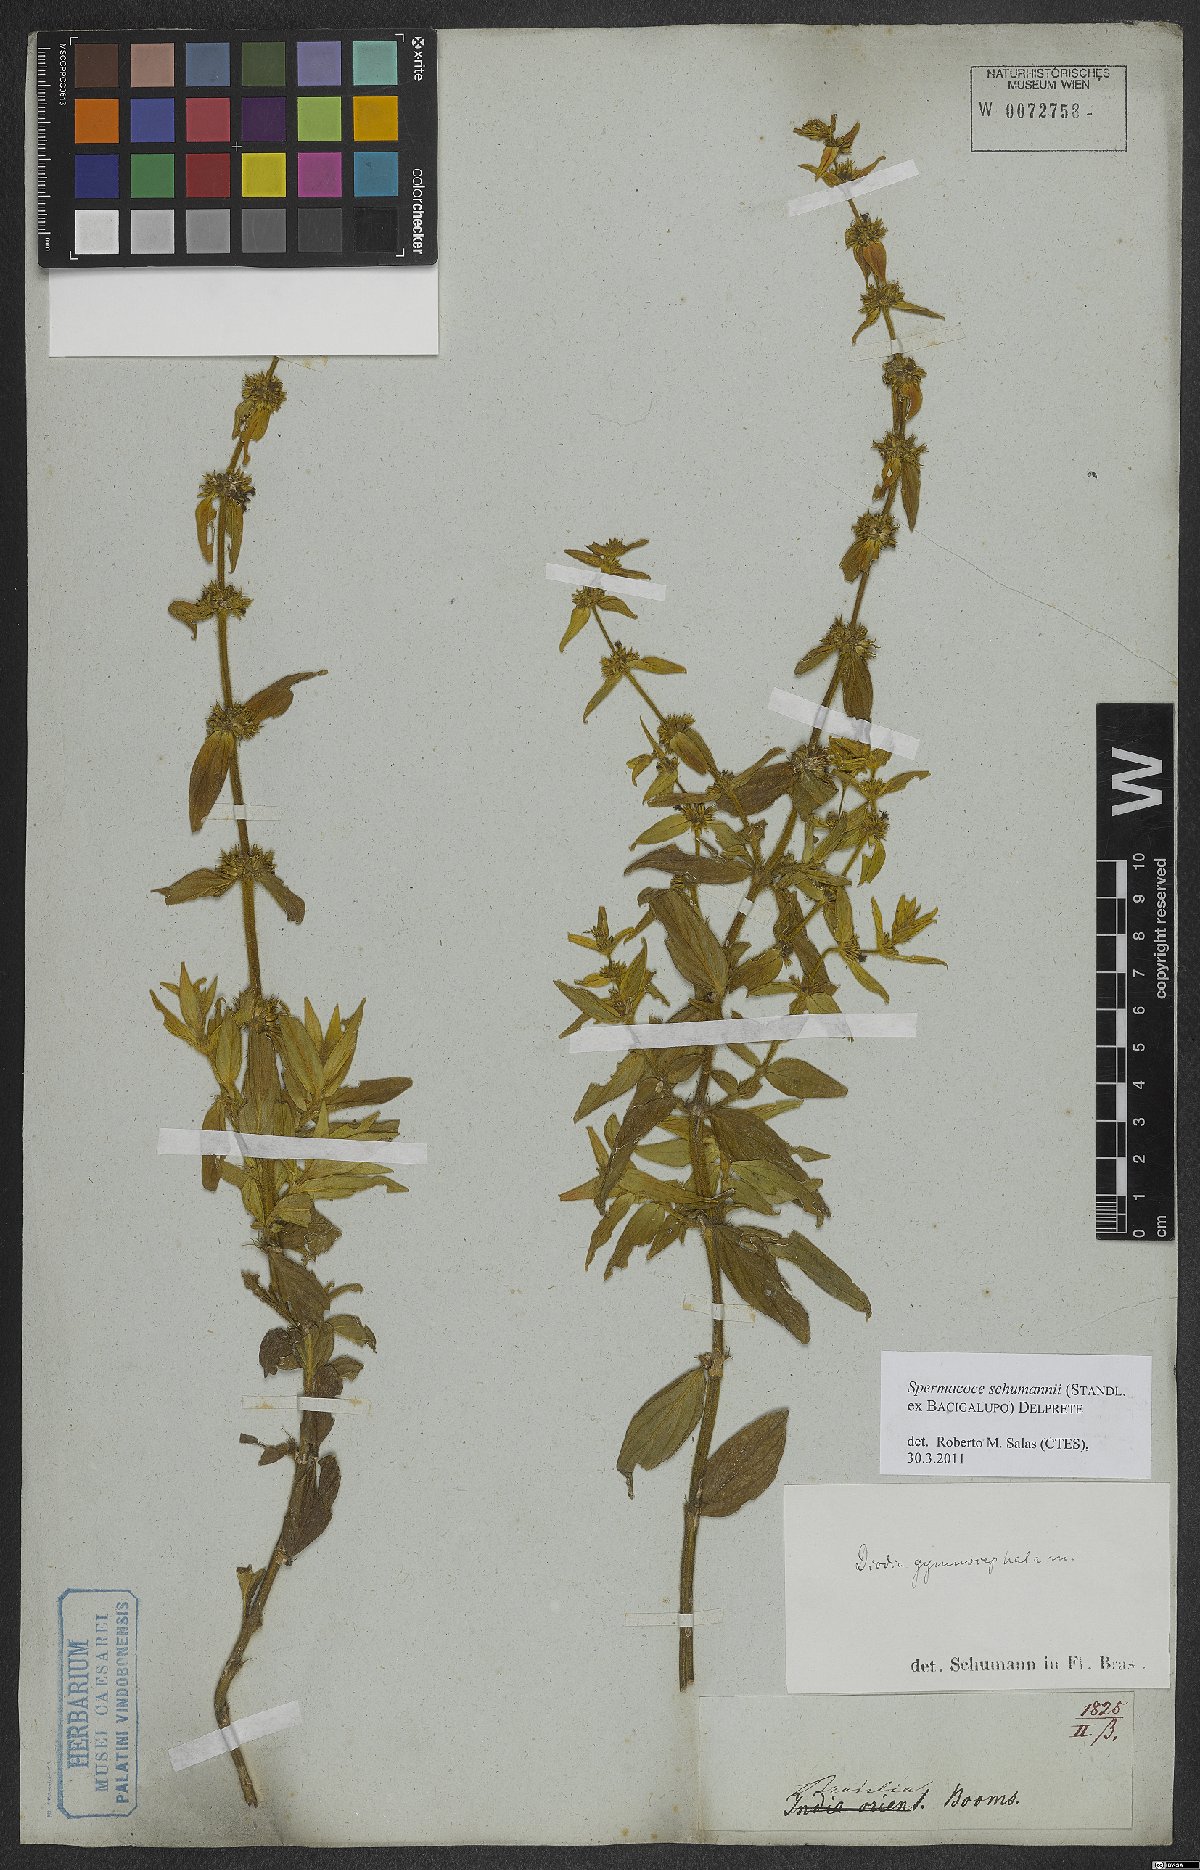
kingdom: Plantae
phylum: Tracheophyta
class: Magnoliopsida
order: Gentianales
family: Rubiaceae
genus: Spermacoce
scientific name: Spermacoce schumannii
